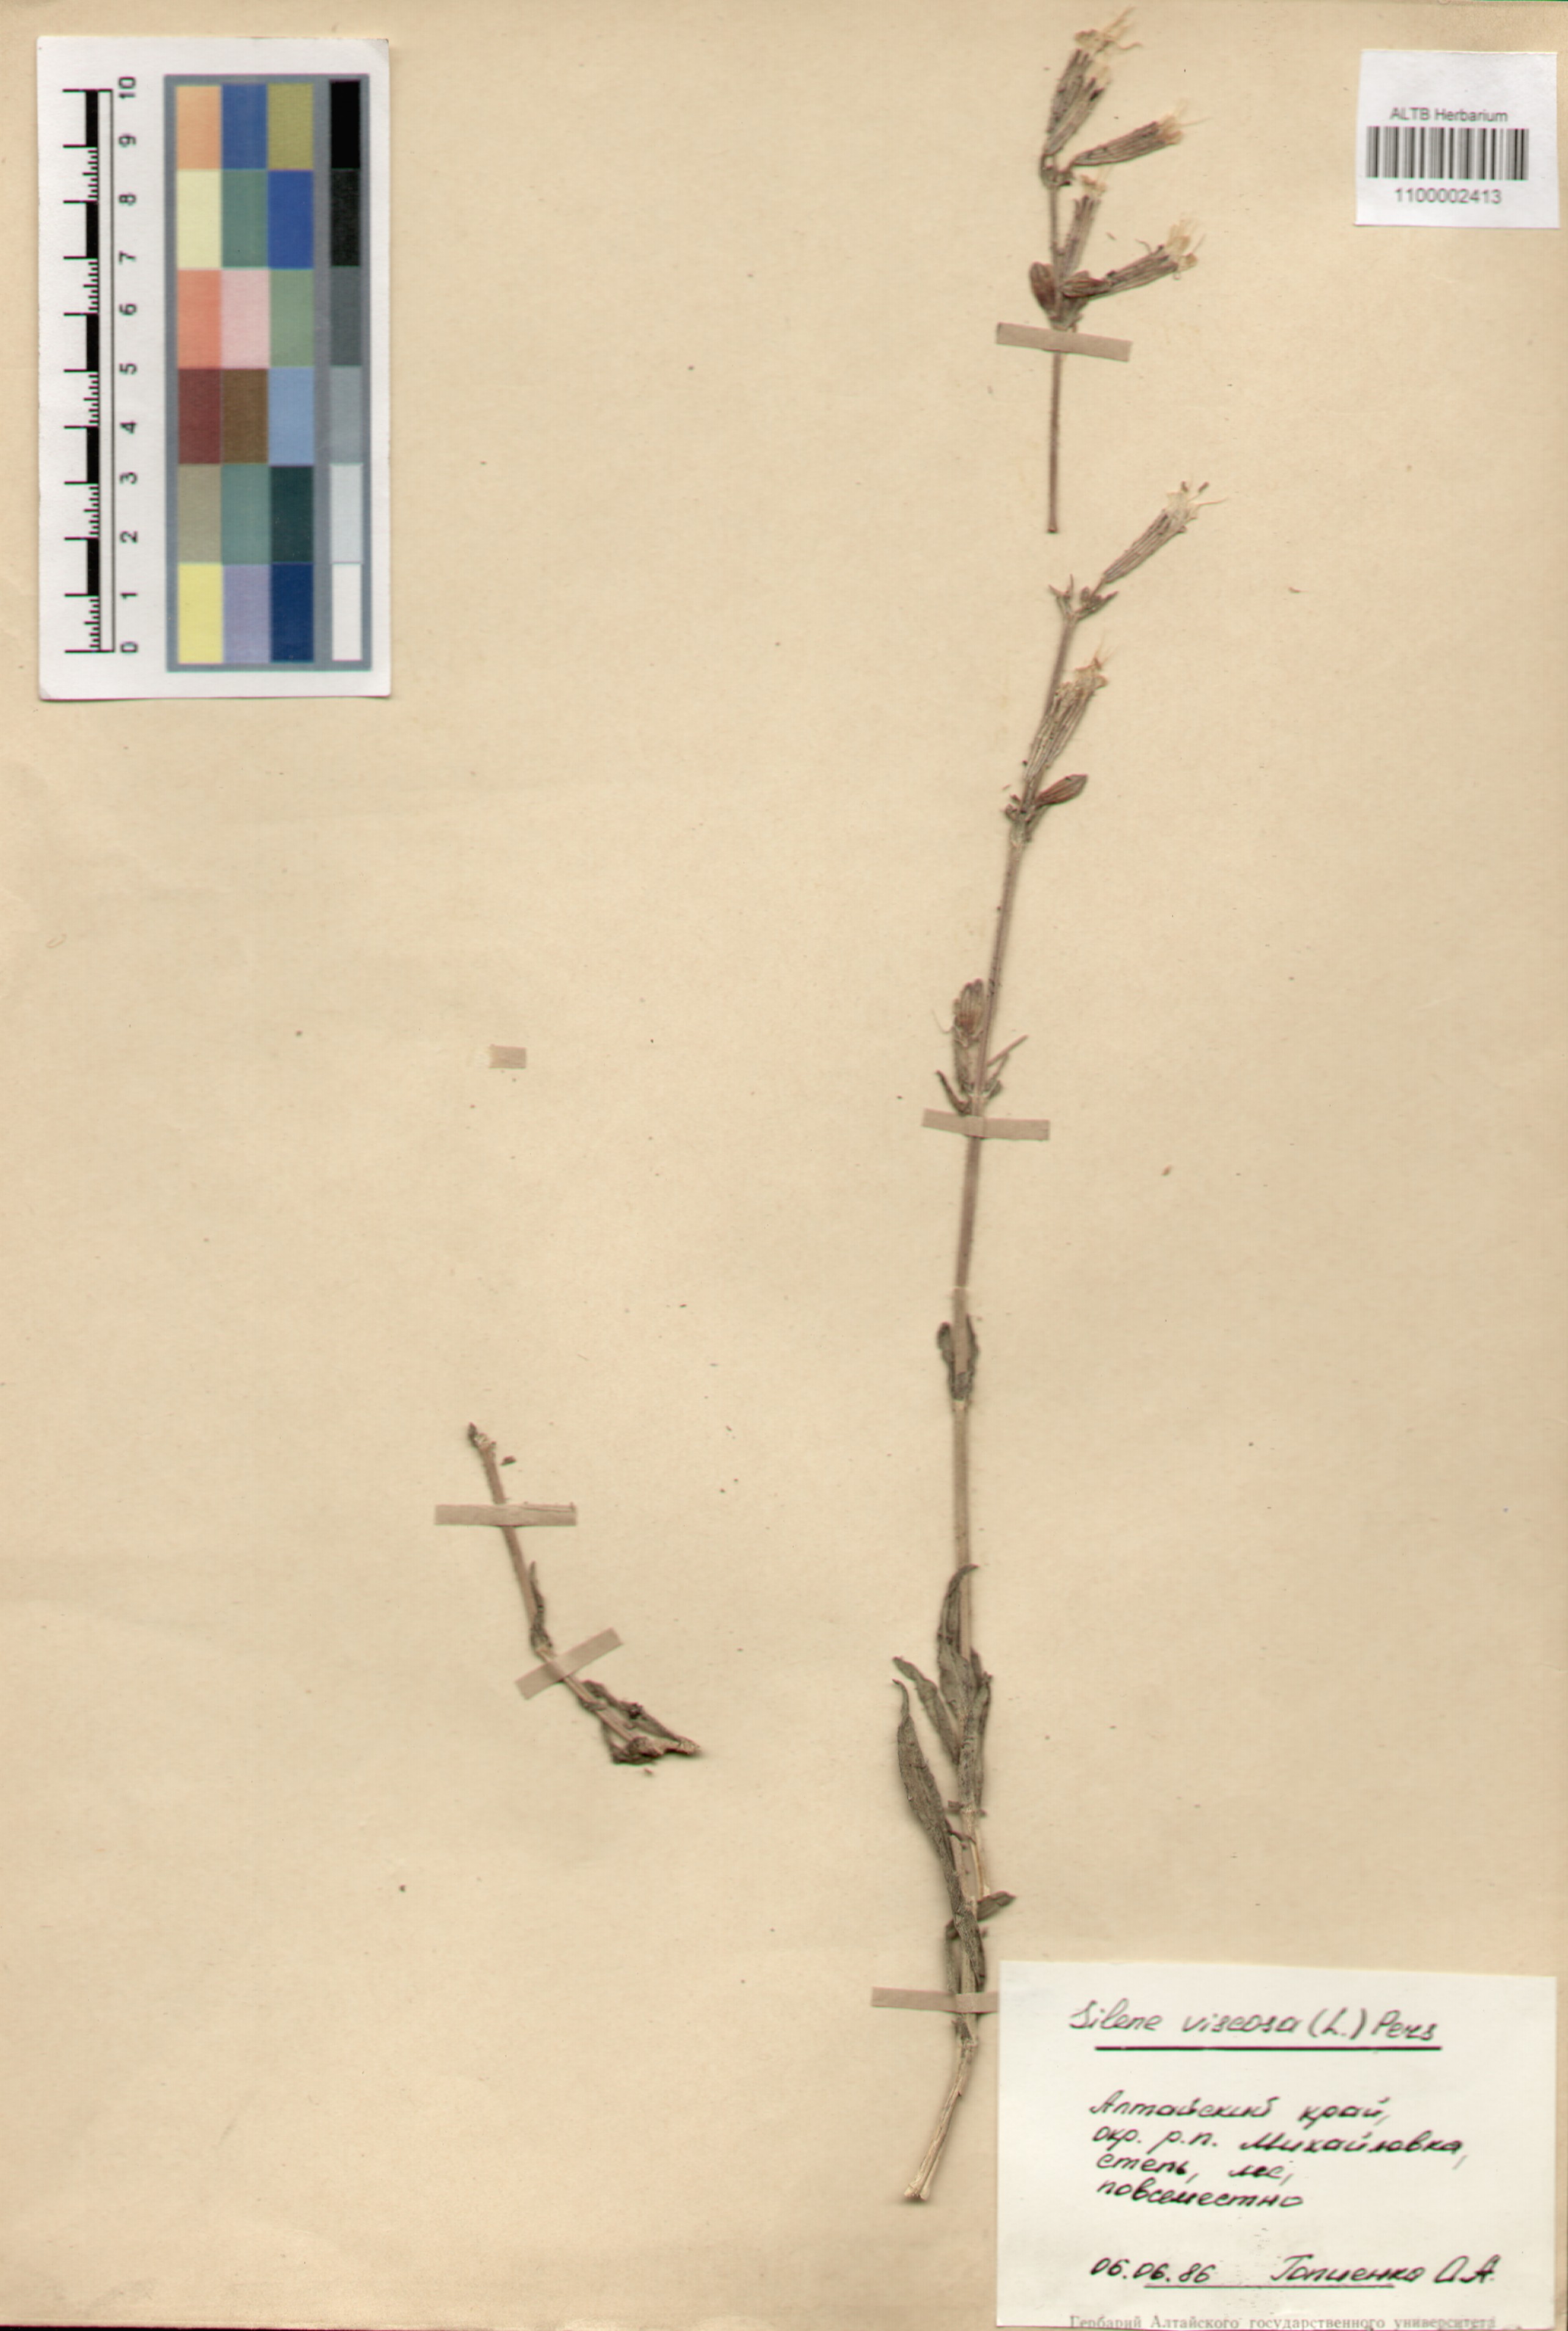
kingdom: Plantae
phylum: Tracheophyta
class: Magnoliopsida
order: Caryophyllales
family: Caryophyllaceae
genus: Silene
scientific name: Silene viscosa
